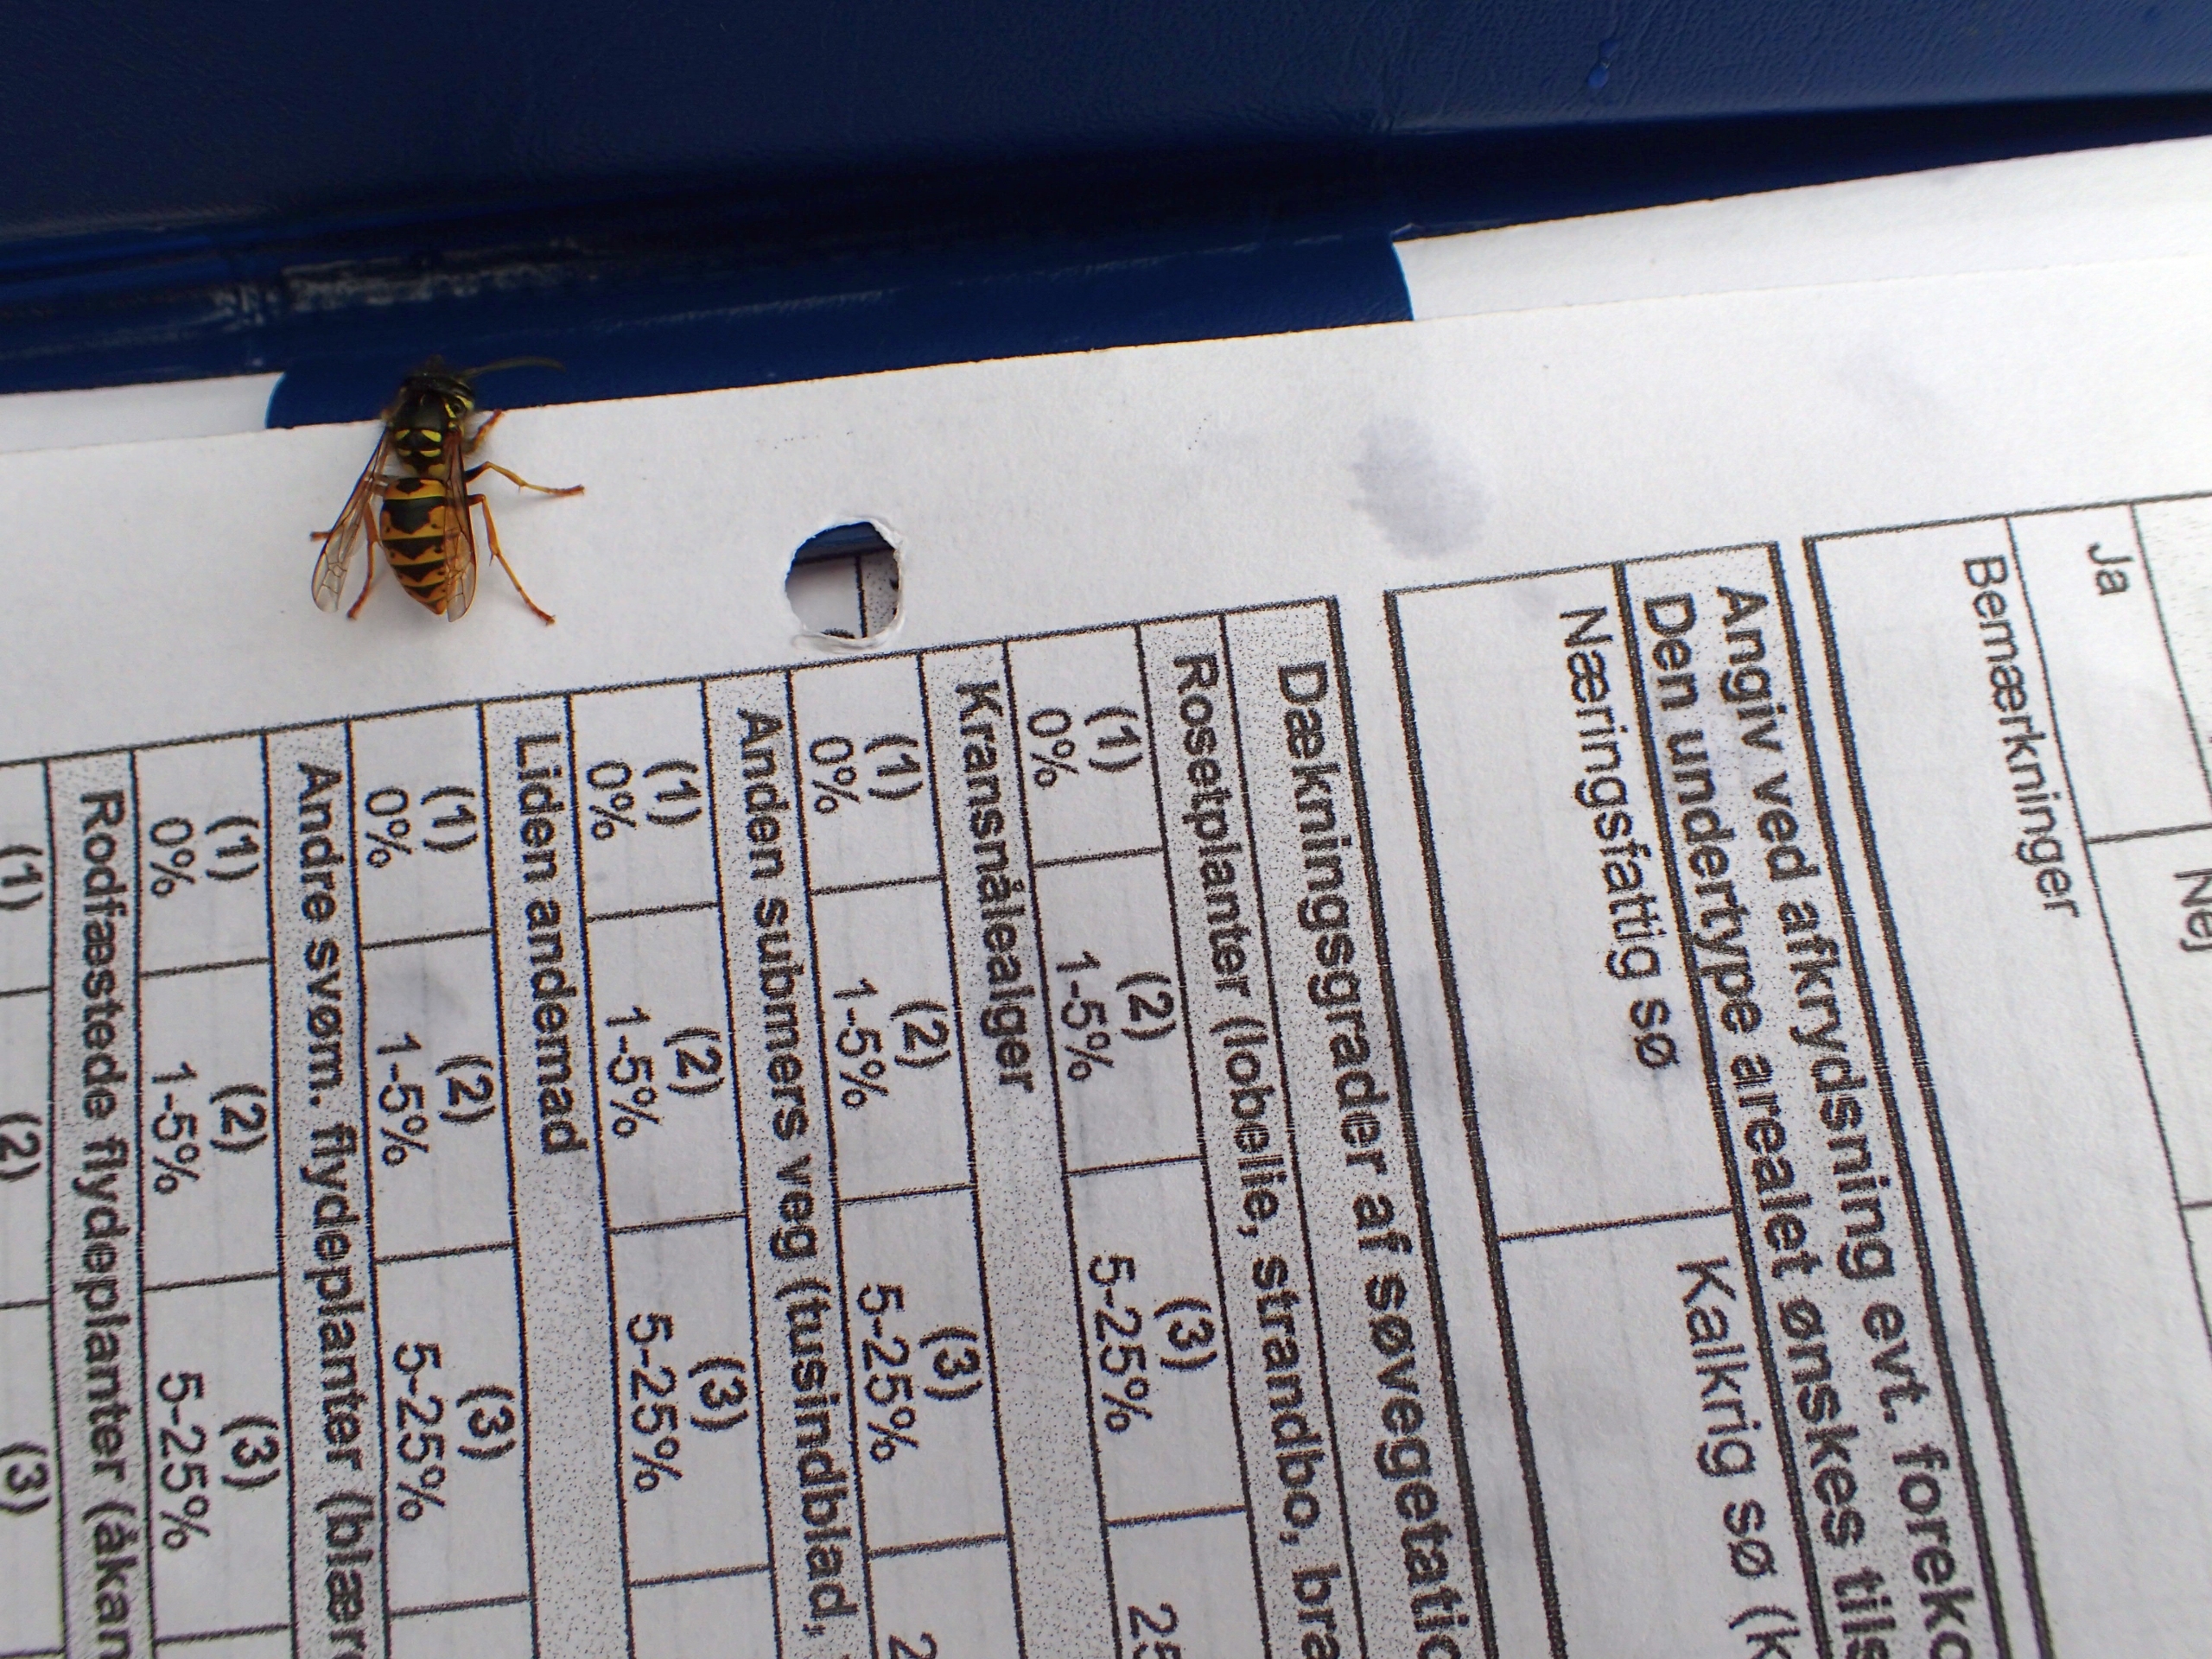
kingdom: Animalia
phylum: Arthropoda
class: Insecta
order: Hymenoptera
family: Vespidae
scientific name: Vespidae
